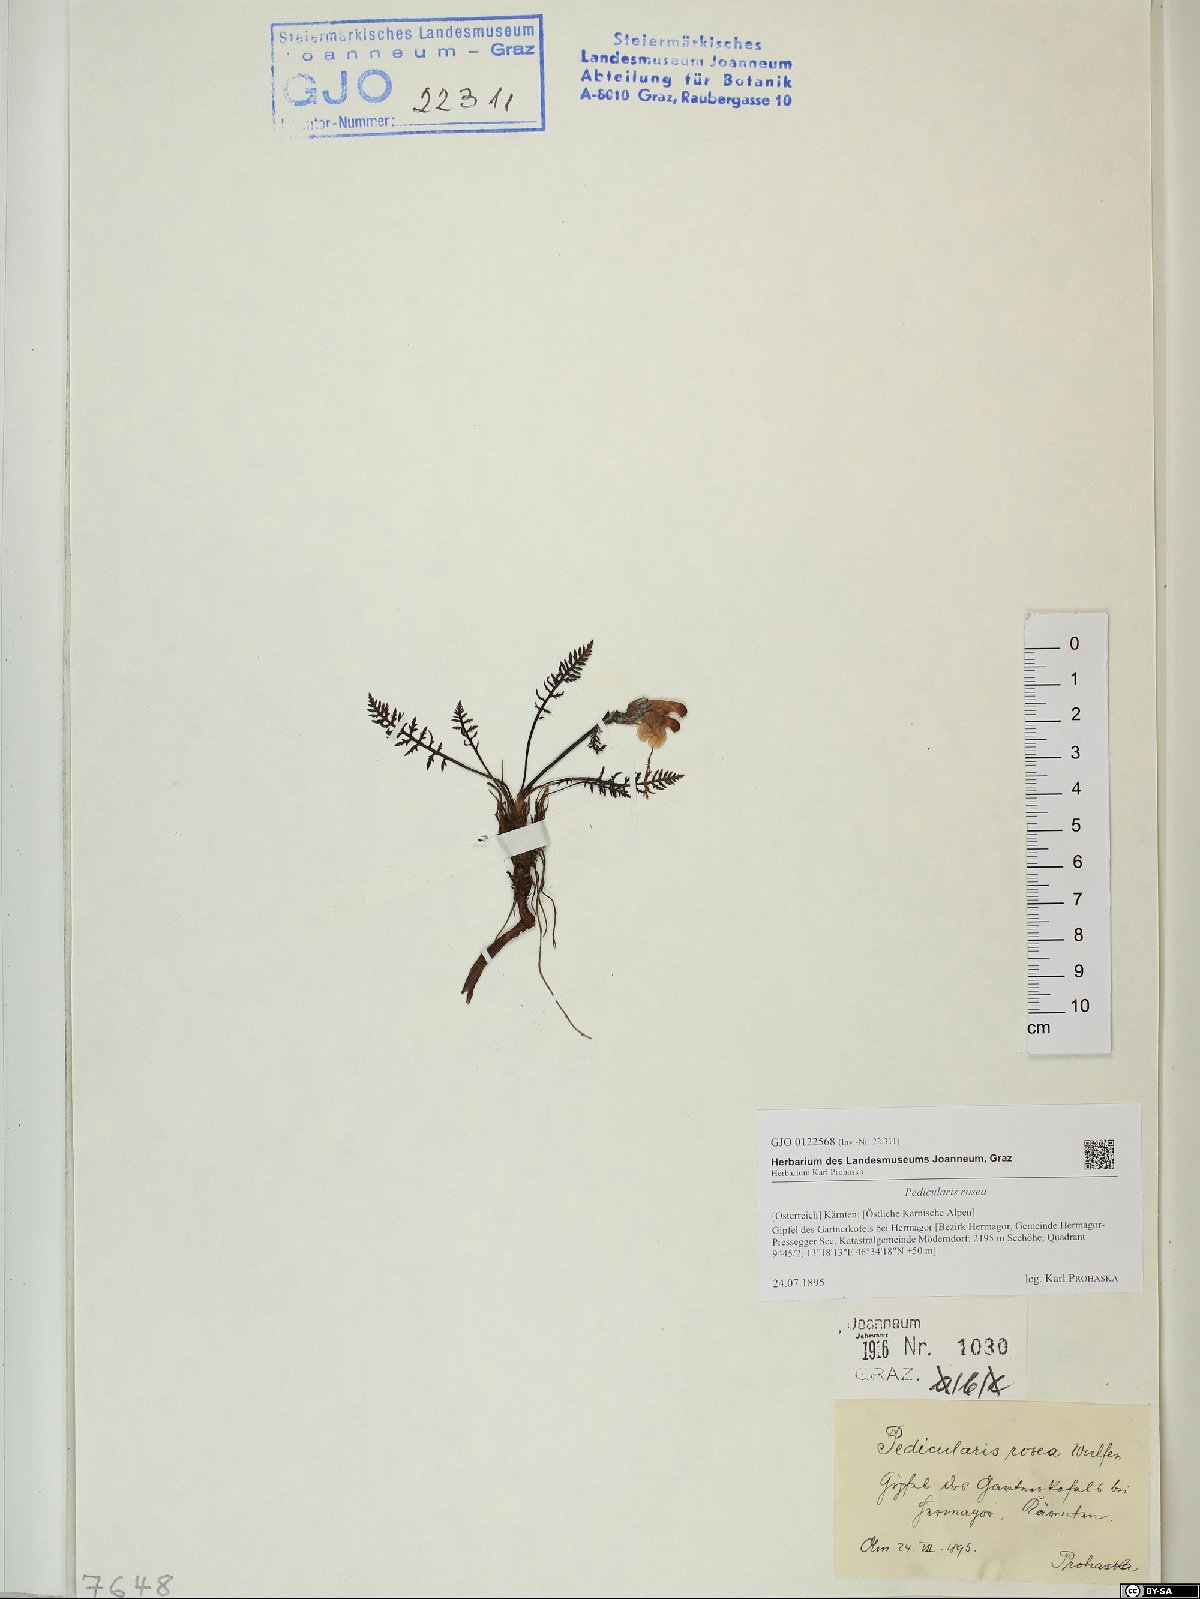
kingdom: Plantae
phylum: Tracheophyta
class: Magnoliopsida
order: Lamiales
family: Orobanchaceae
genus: Pedicularis
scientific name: Pedicularis rosea
